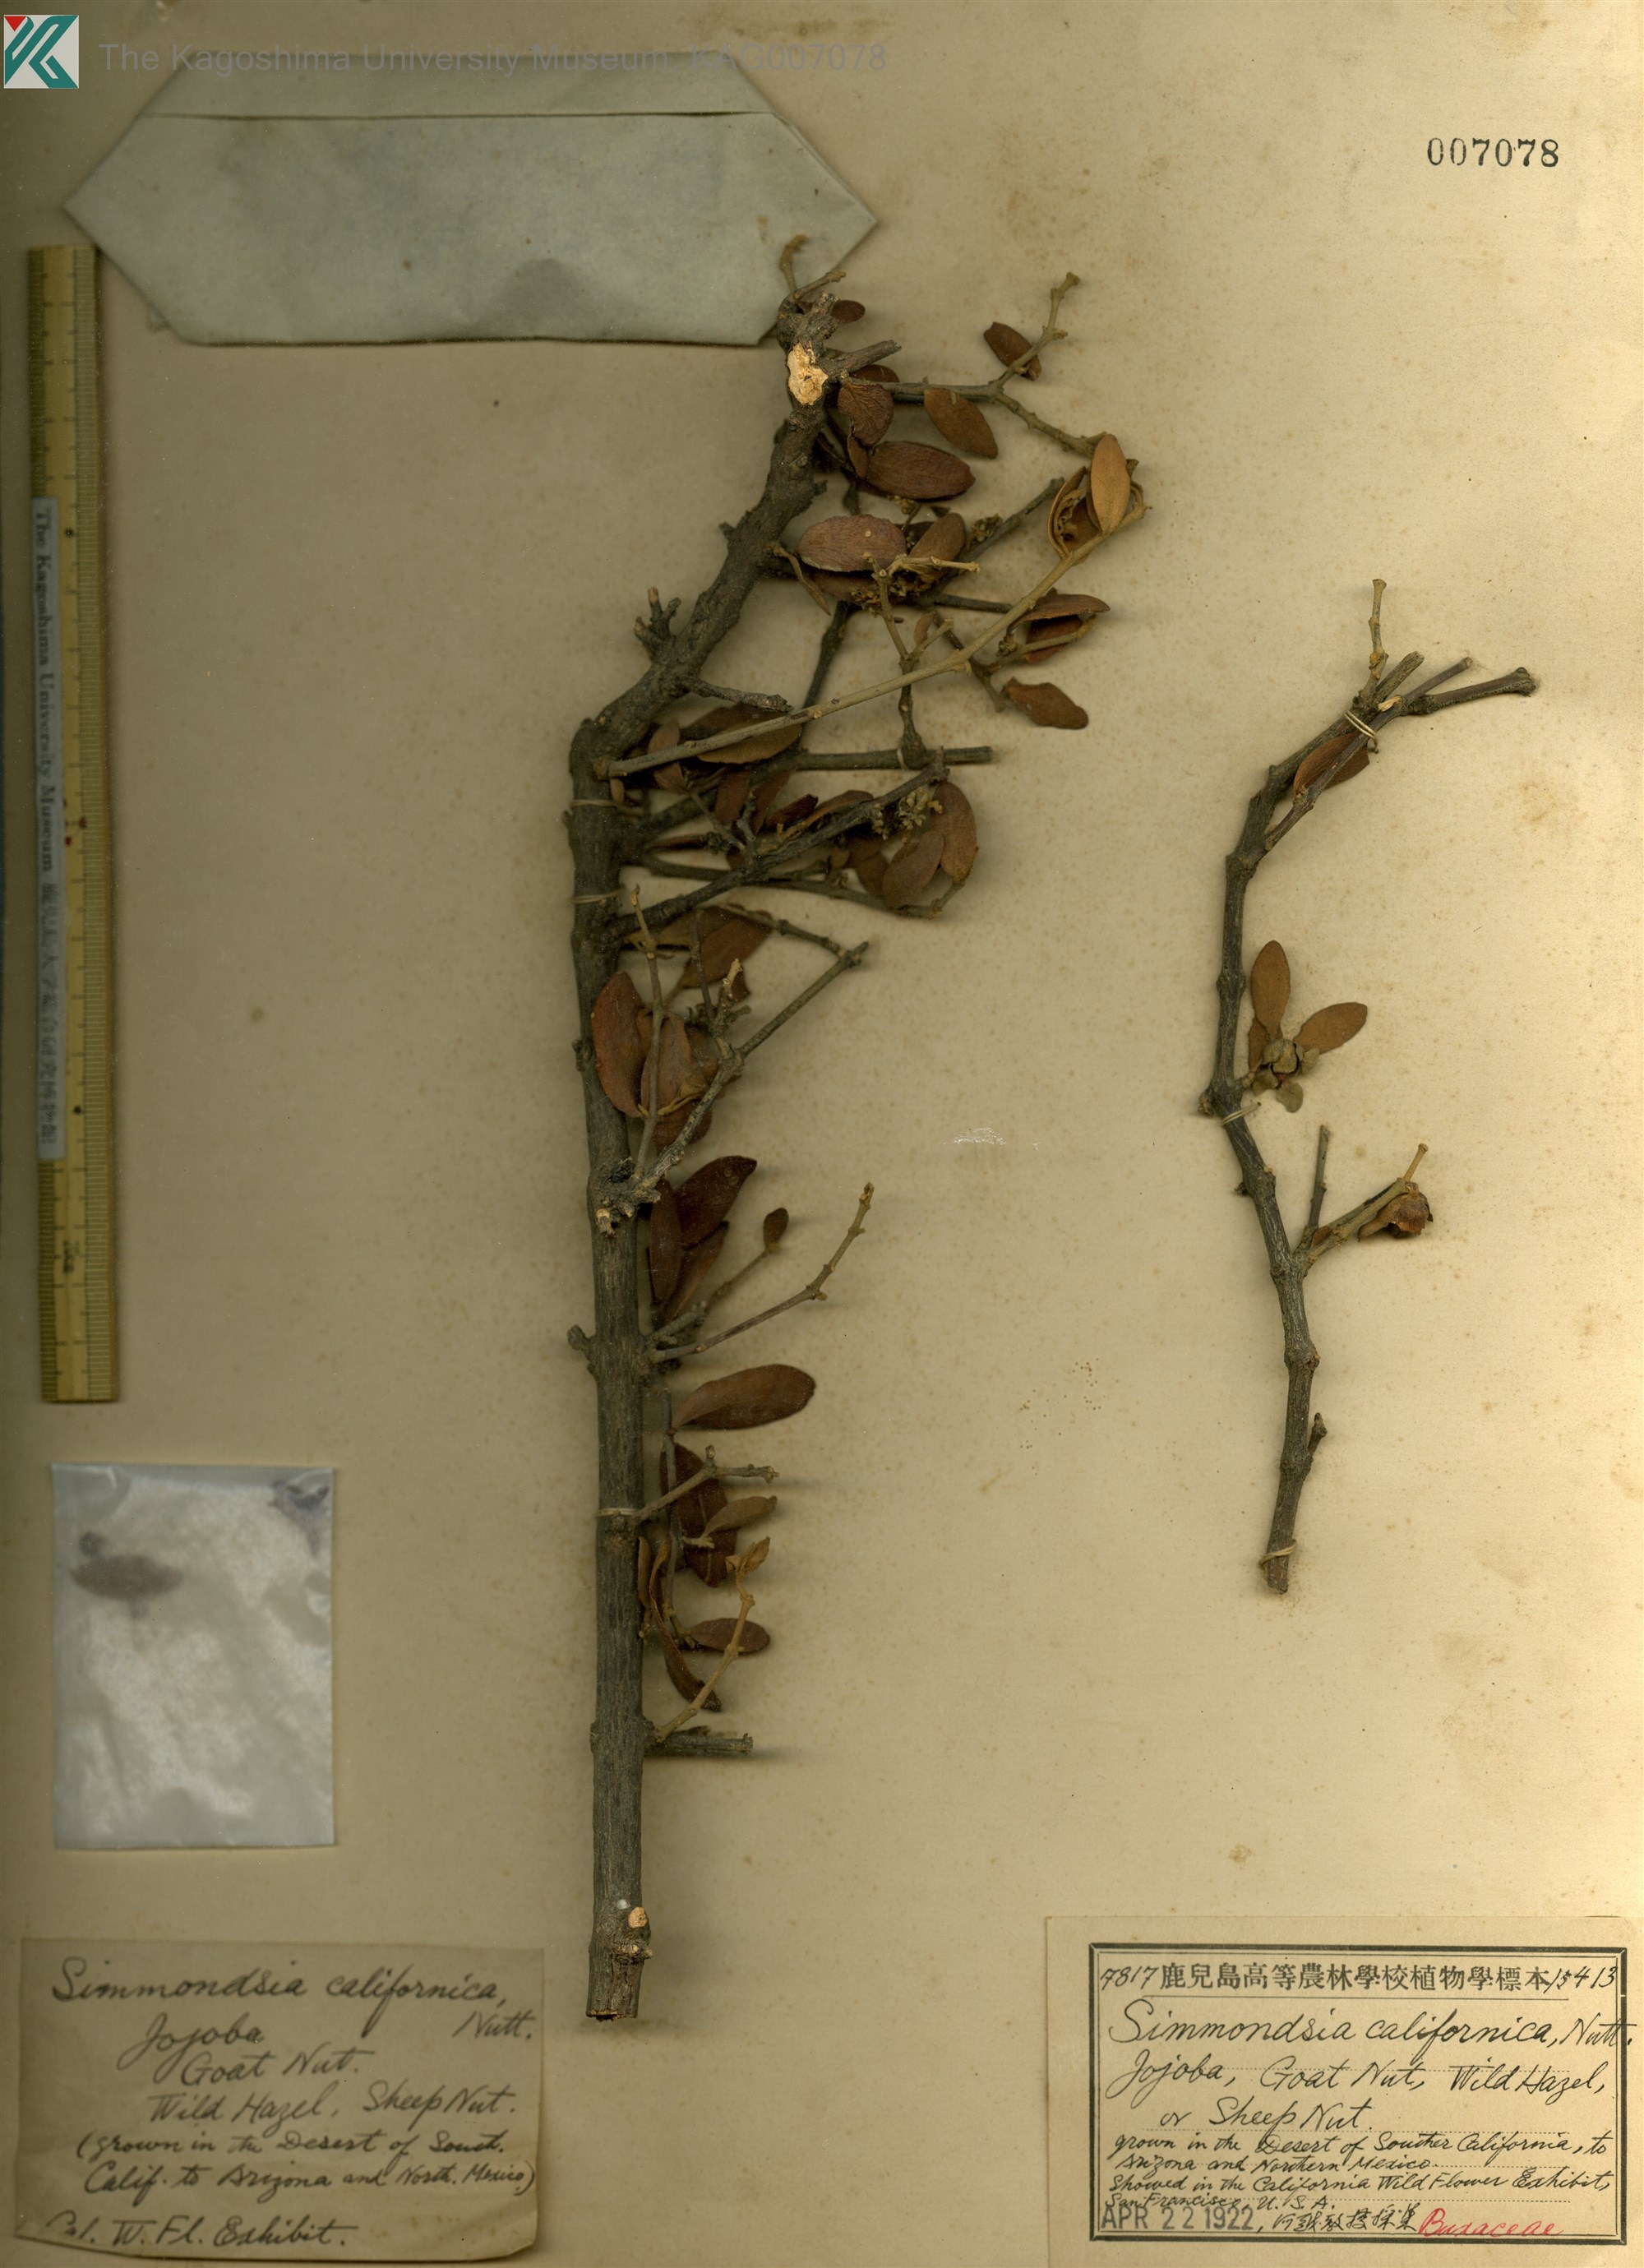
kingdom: Plantae
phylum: Tracheophyta
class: Magnoliopsida
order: Caryophyllales
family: Simmondsiaceae
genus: Simmondsia
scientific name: Simmondsia chinensis
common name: Jojoba
